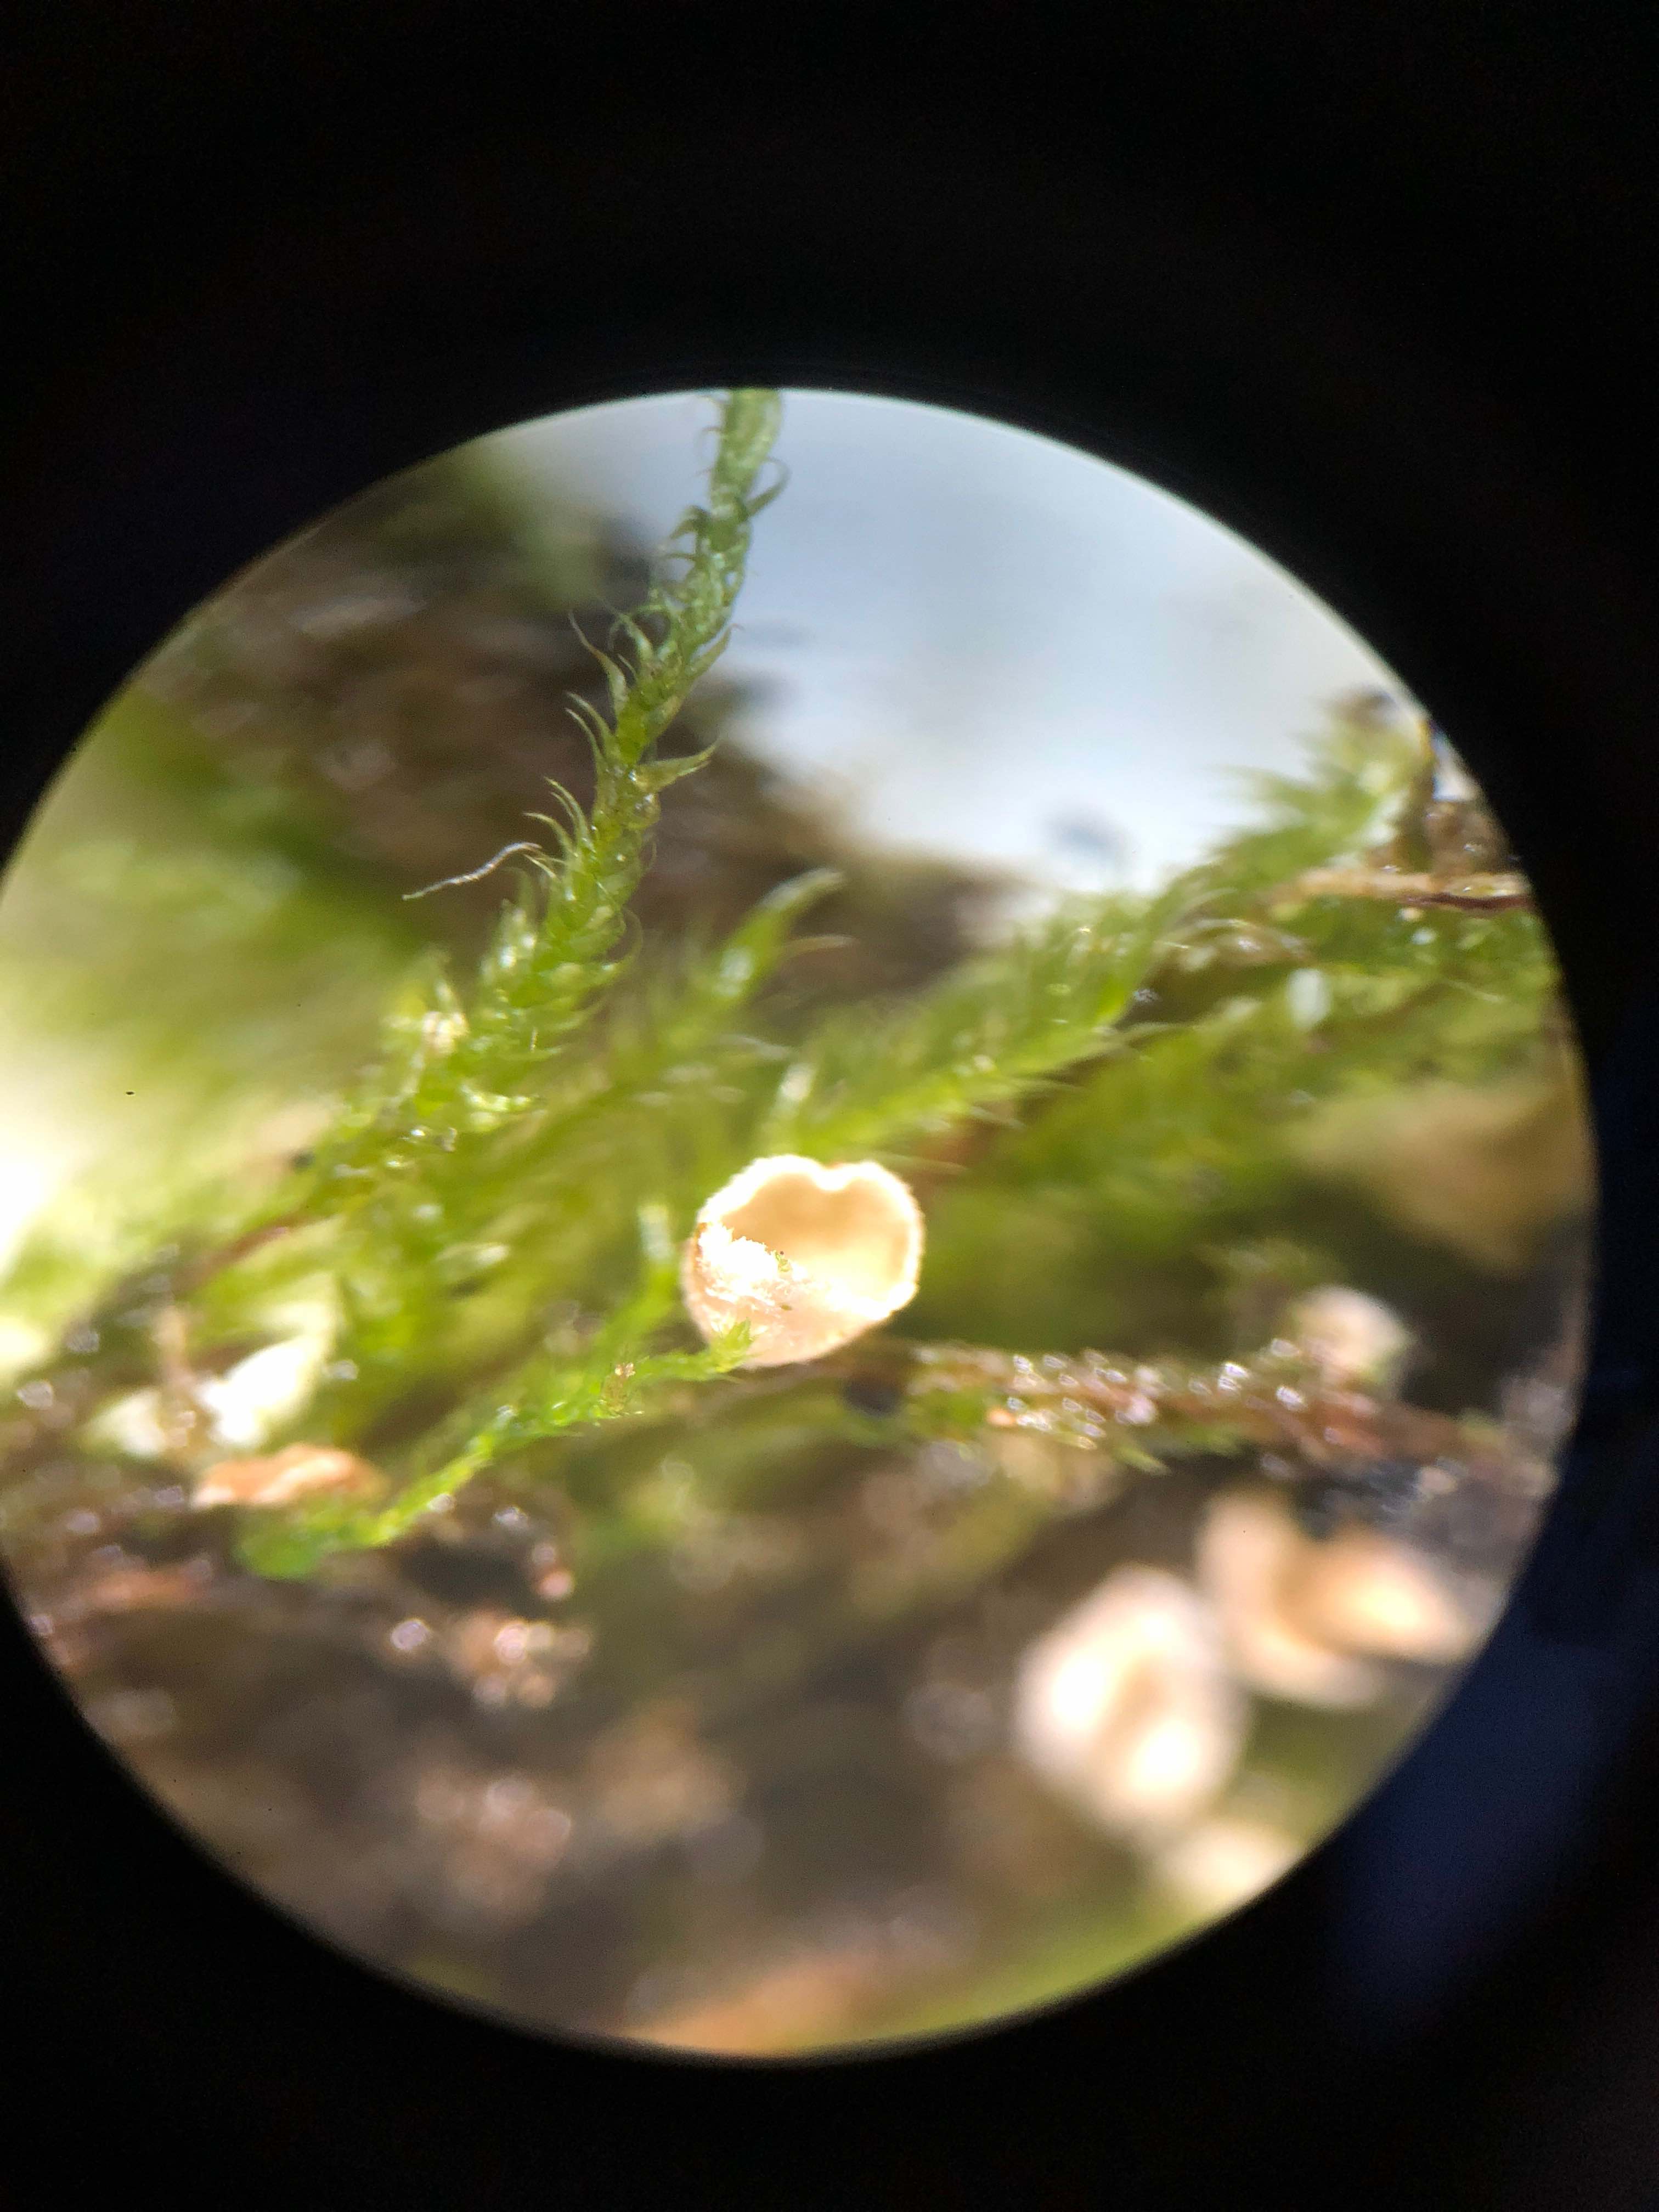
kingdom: Fungi
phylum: Basidiomycota
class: Agaricomycetes
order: Agaricales
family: Chromocyphellaceae
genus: Chromocyphella
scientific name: Chromocyphella muscicola
